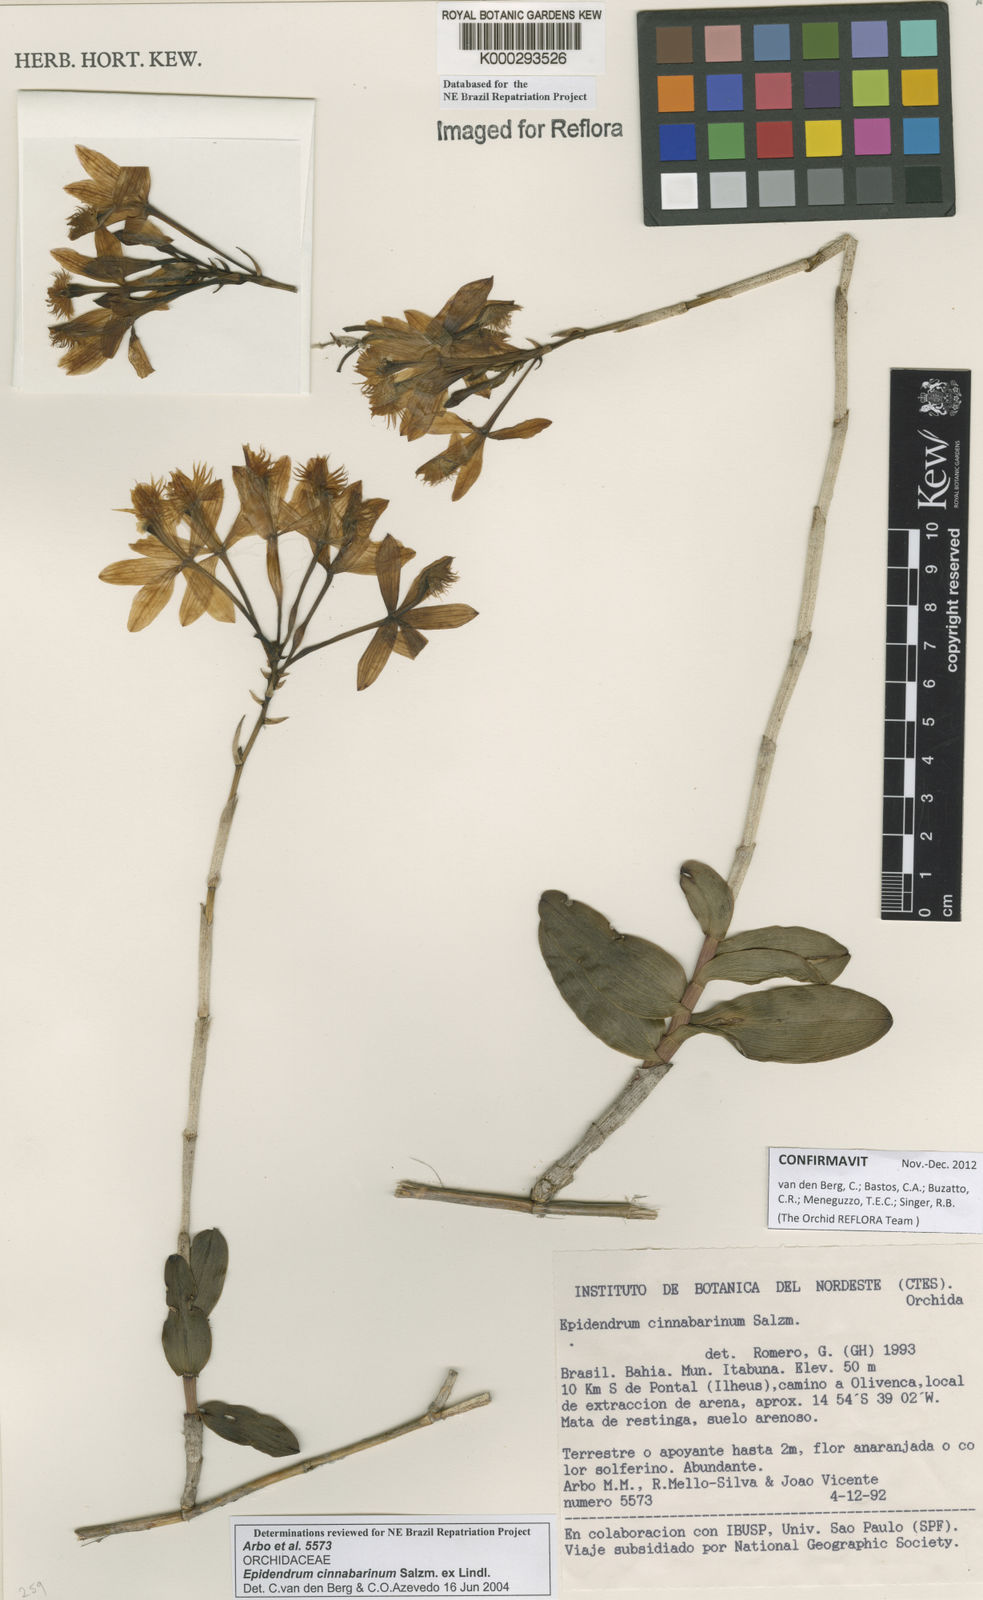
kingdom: Plantae
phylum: Tracheophyta
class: Liliopsida
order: Asparagales
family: Orchidaceae
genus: Epidendrum
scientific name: Epidendrum cinnabarinum
